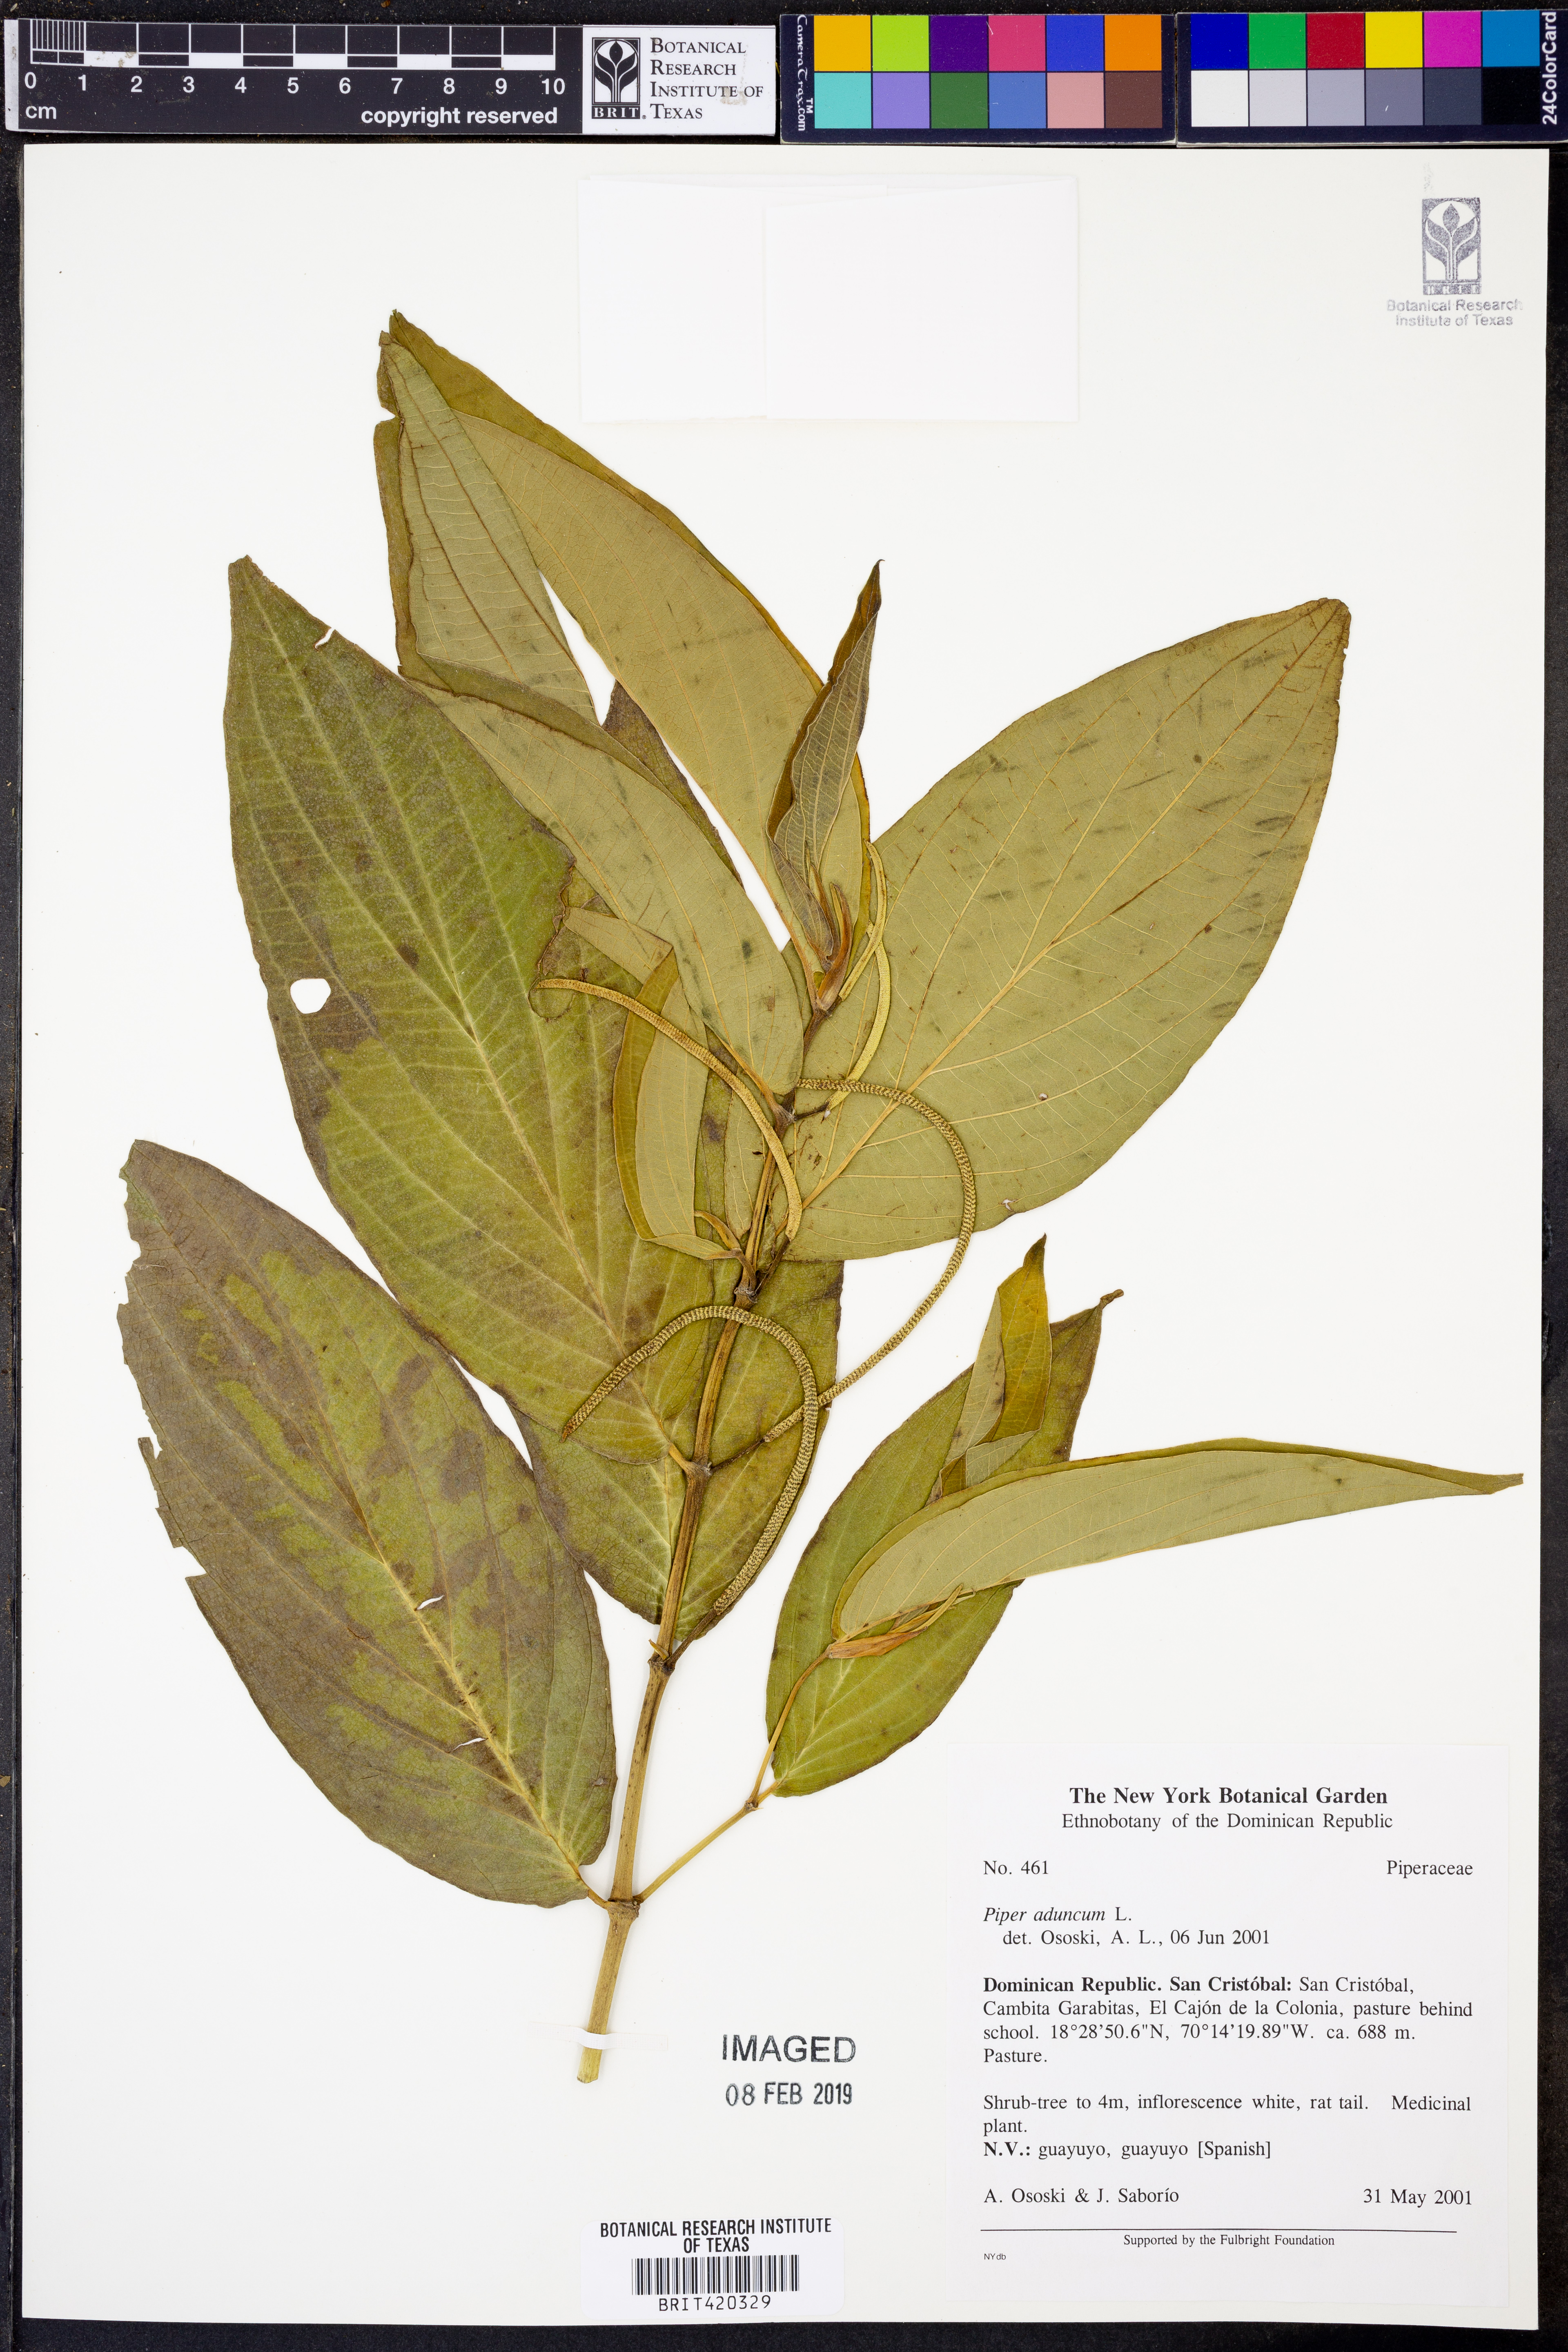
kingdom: Plantae
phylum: Tracheophyta
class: Magnoliopsida
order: Piperales
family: Piperaceae
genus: Piper
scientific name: Piper aduncum
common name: Spiked pepper
